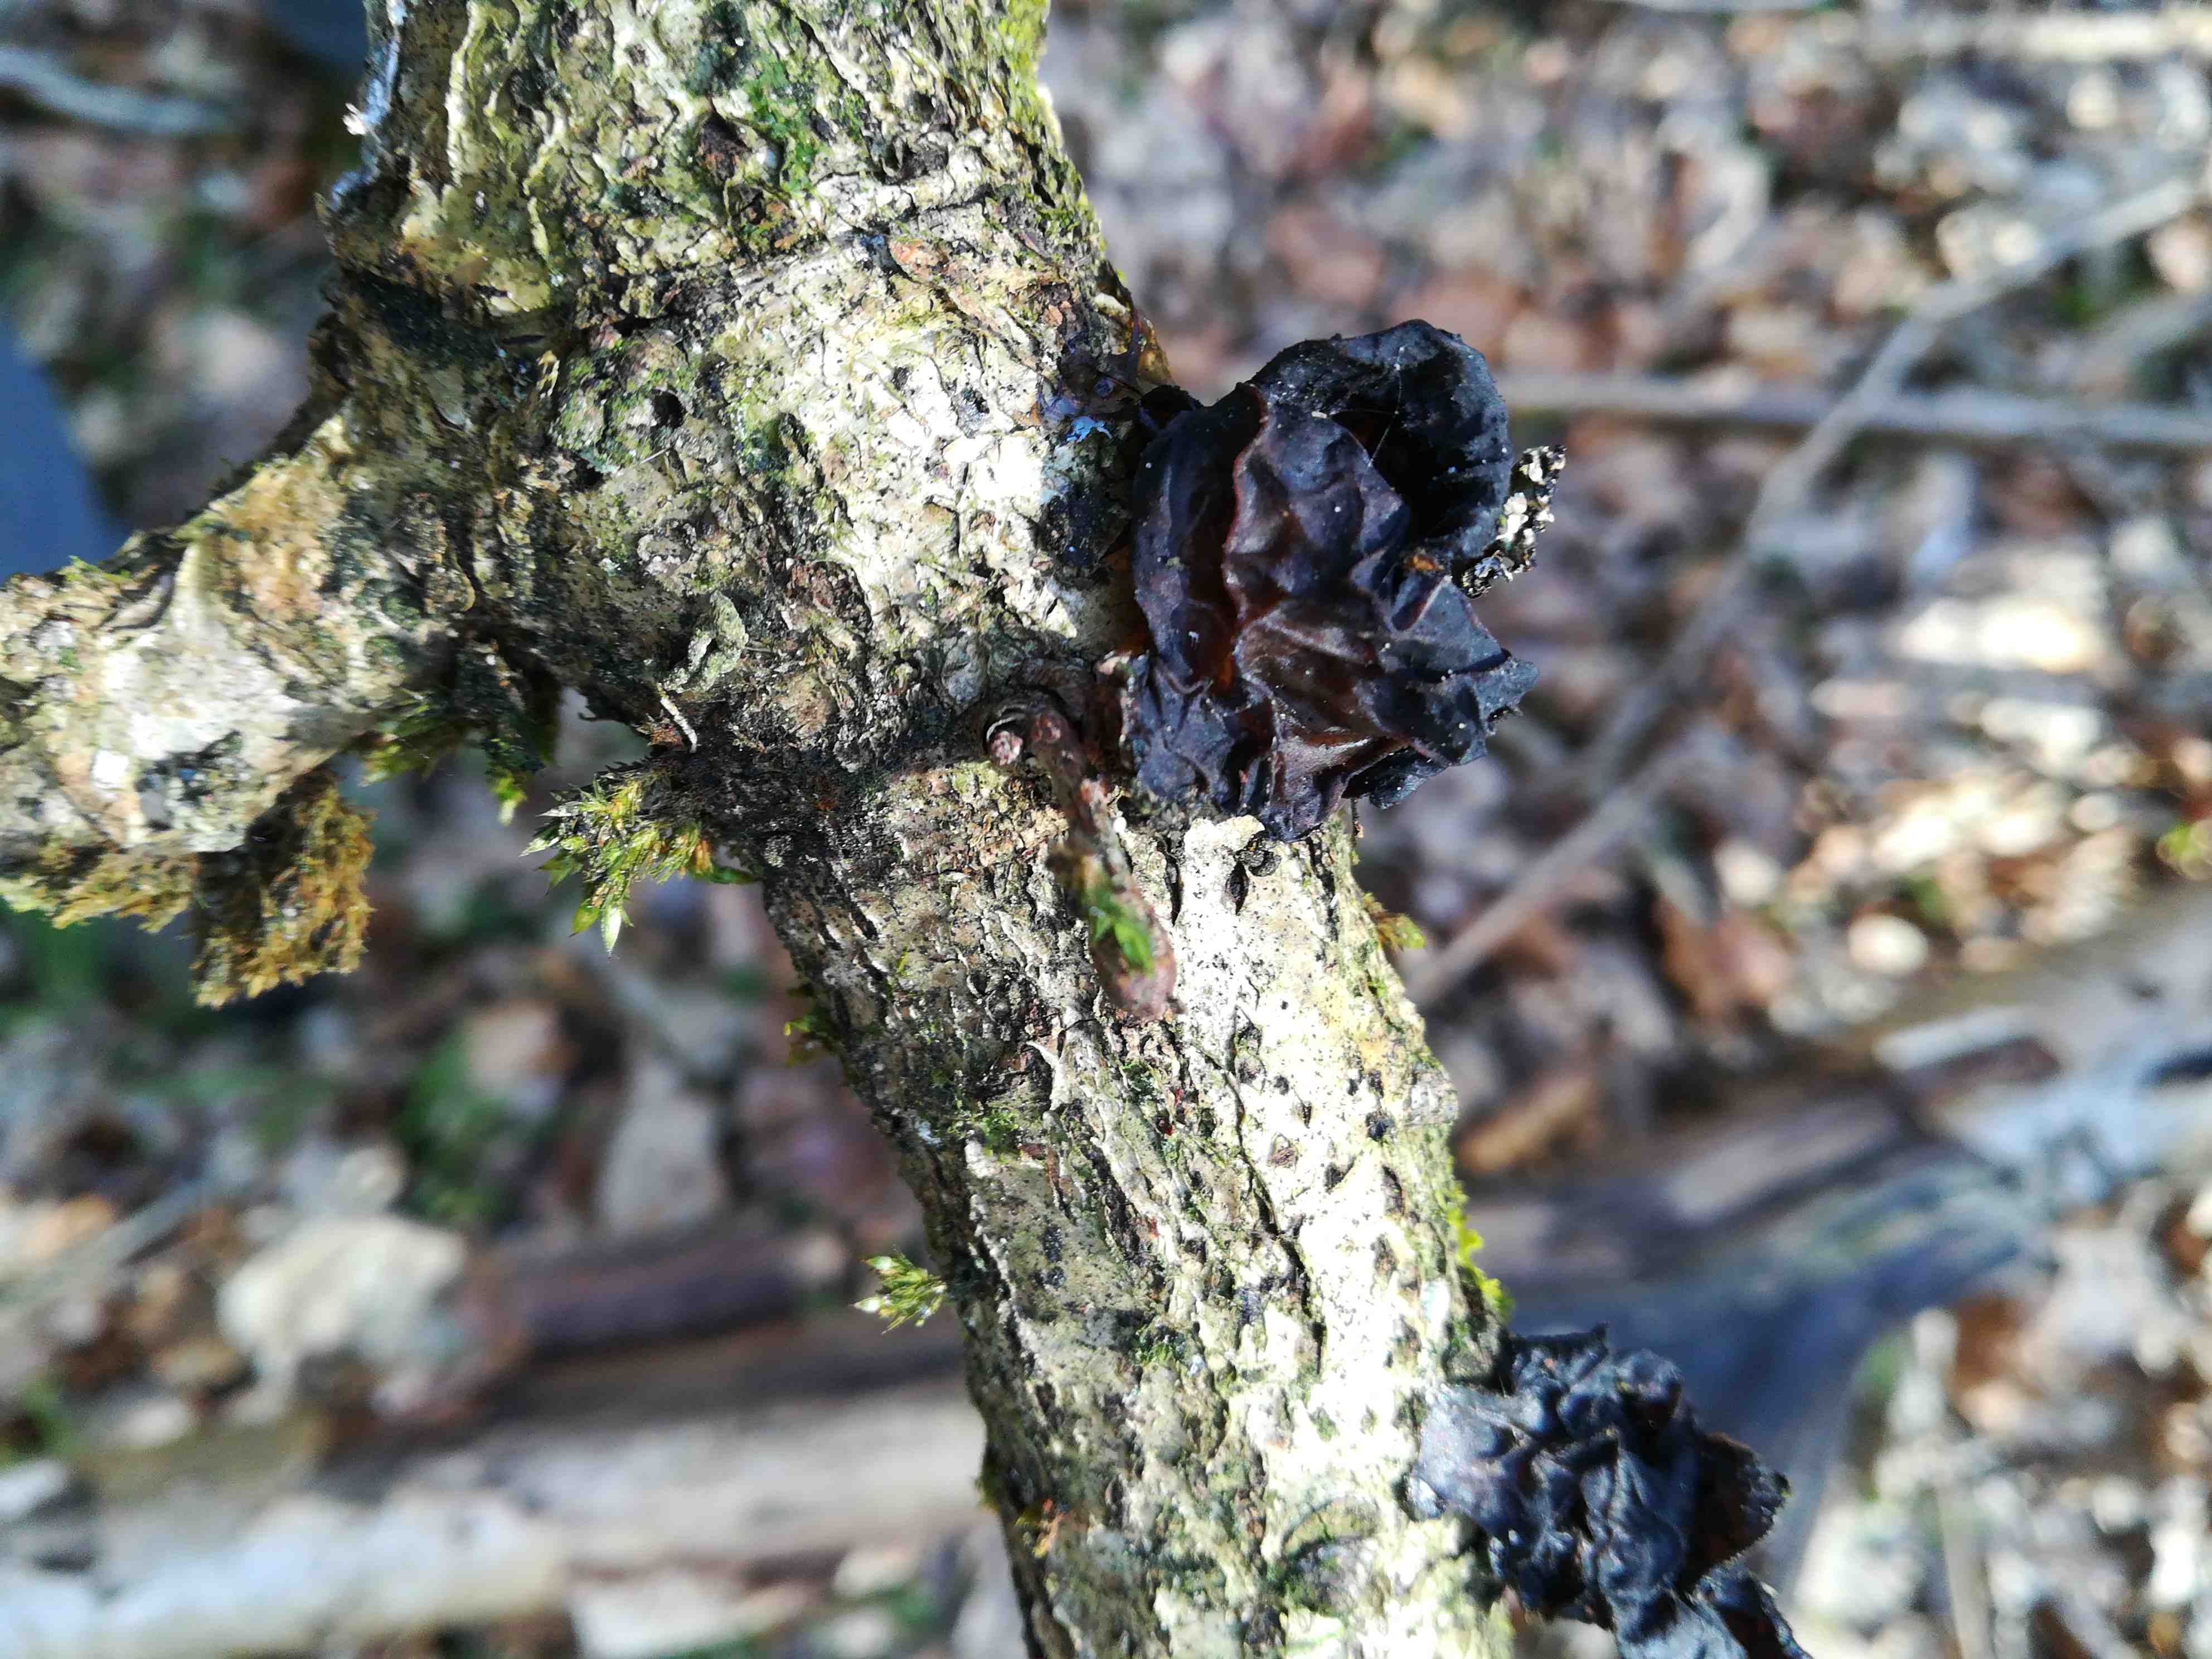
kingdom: Fungi
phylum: Basidiomycota
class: Agaricomycetes
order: Auriculariales
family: Auriculariaceae
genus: Exidia
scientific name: Exidia glandulosa
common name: ege-bævretop
